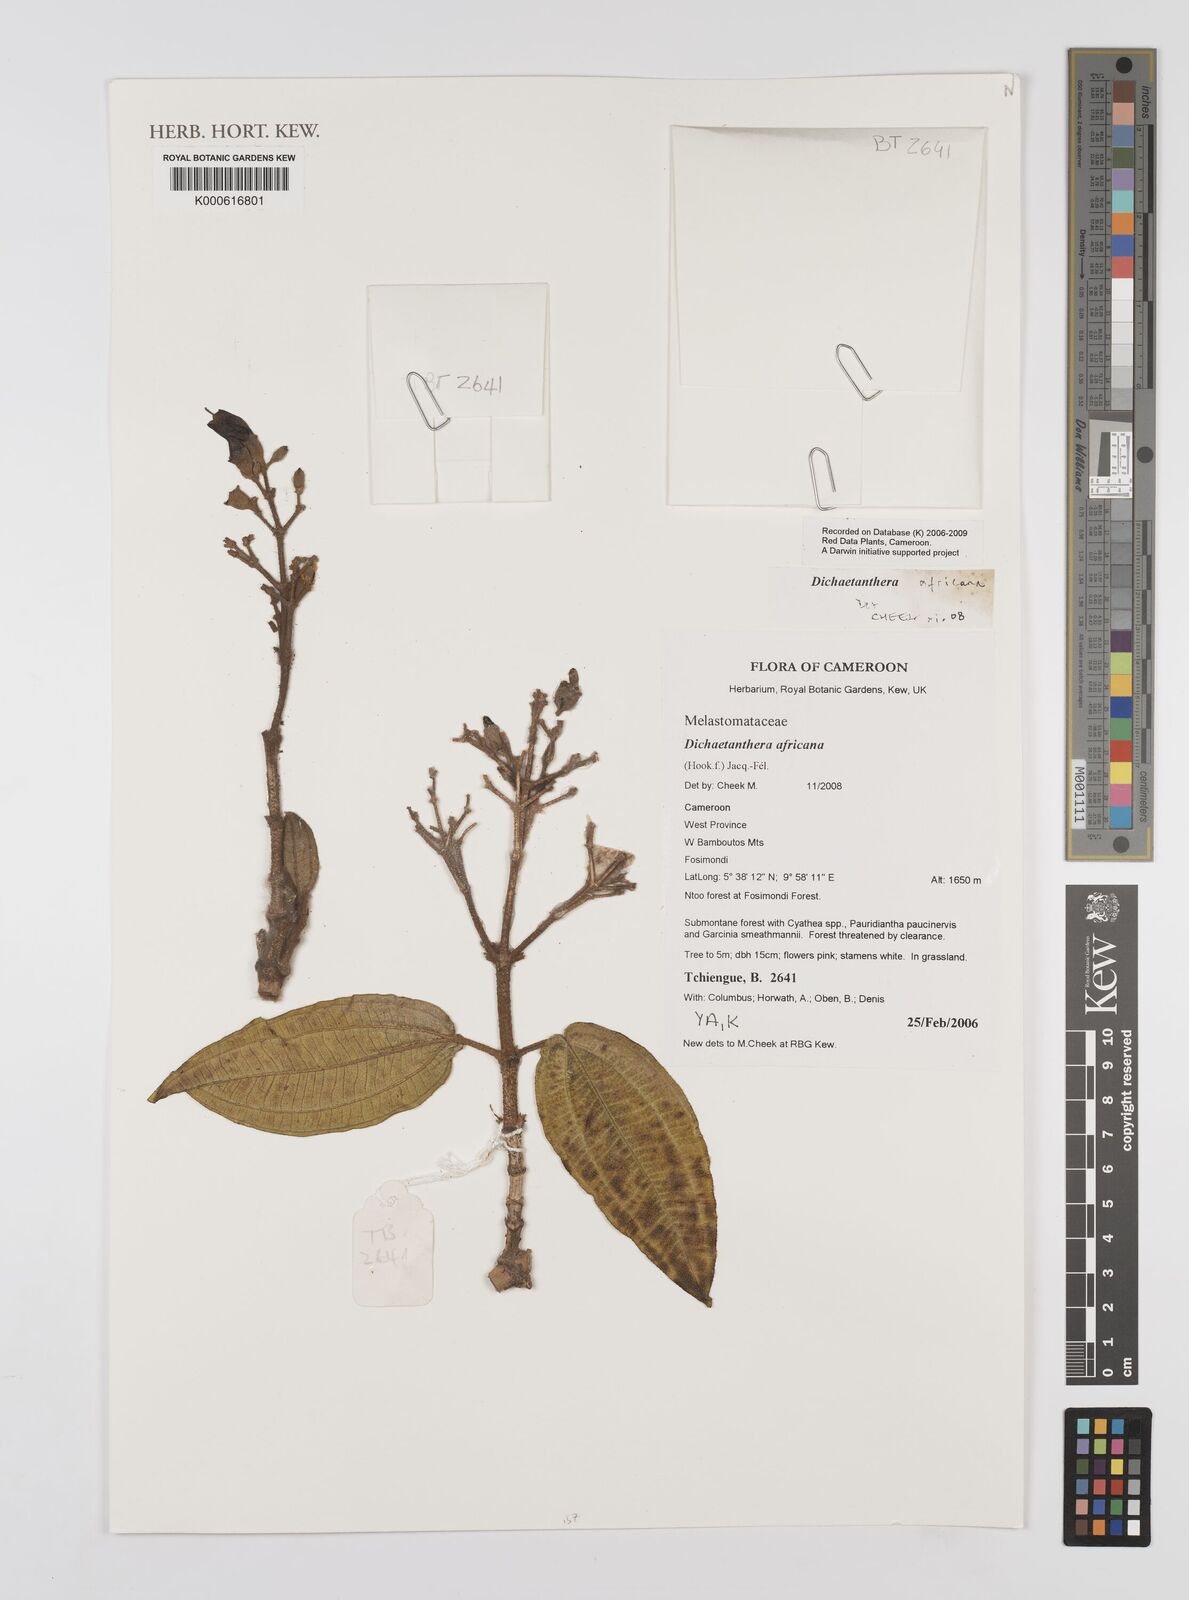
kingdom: Plantae
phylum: Tracheophyta
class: Magnoliopsida
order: Myrtales
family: Melastomataceae
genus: Dichaetanthera
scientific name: Dichaetanthera
